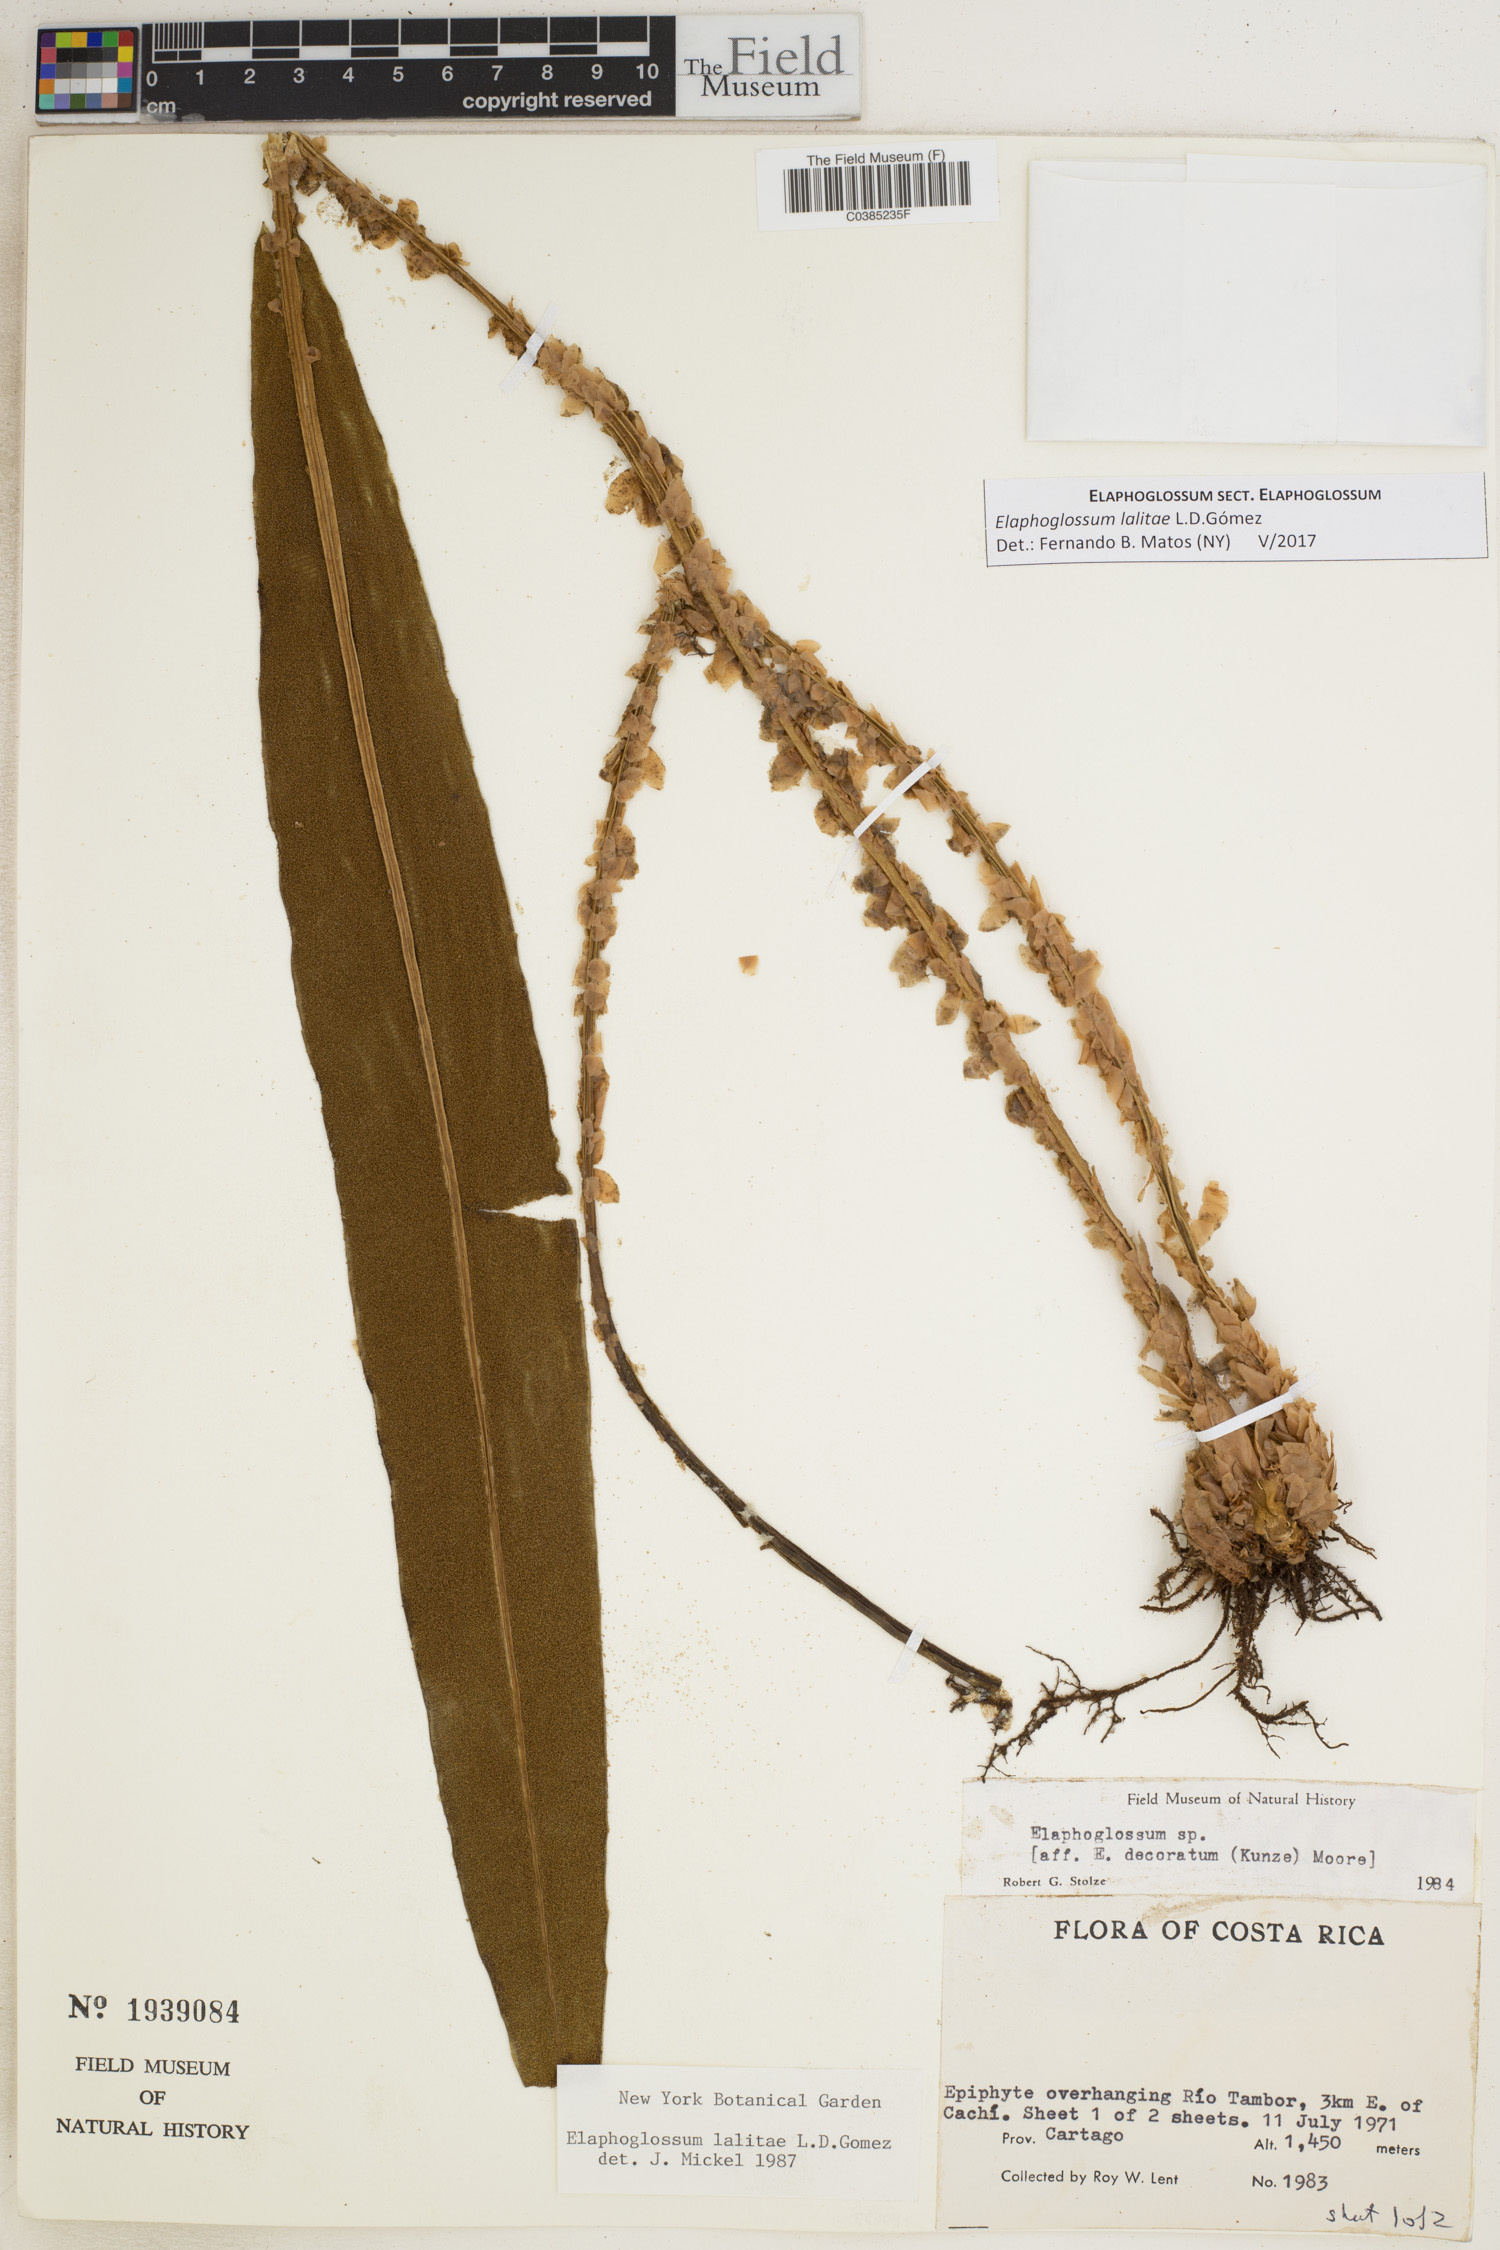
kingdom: Plantae
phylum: Tracheophyta
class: Polypodiopsida
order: Polypodiales
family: Dryopteridaceae
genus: Elaphoglossum
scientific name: Elaphoglossum lalitae
